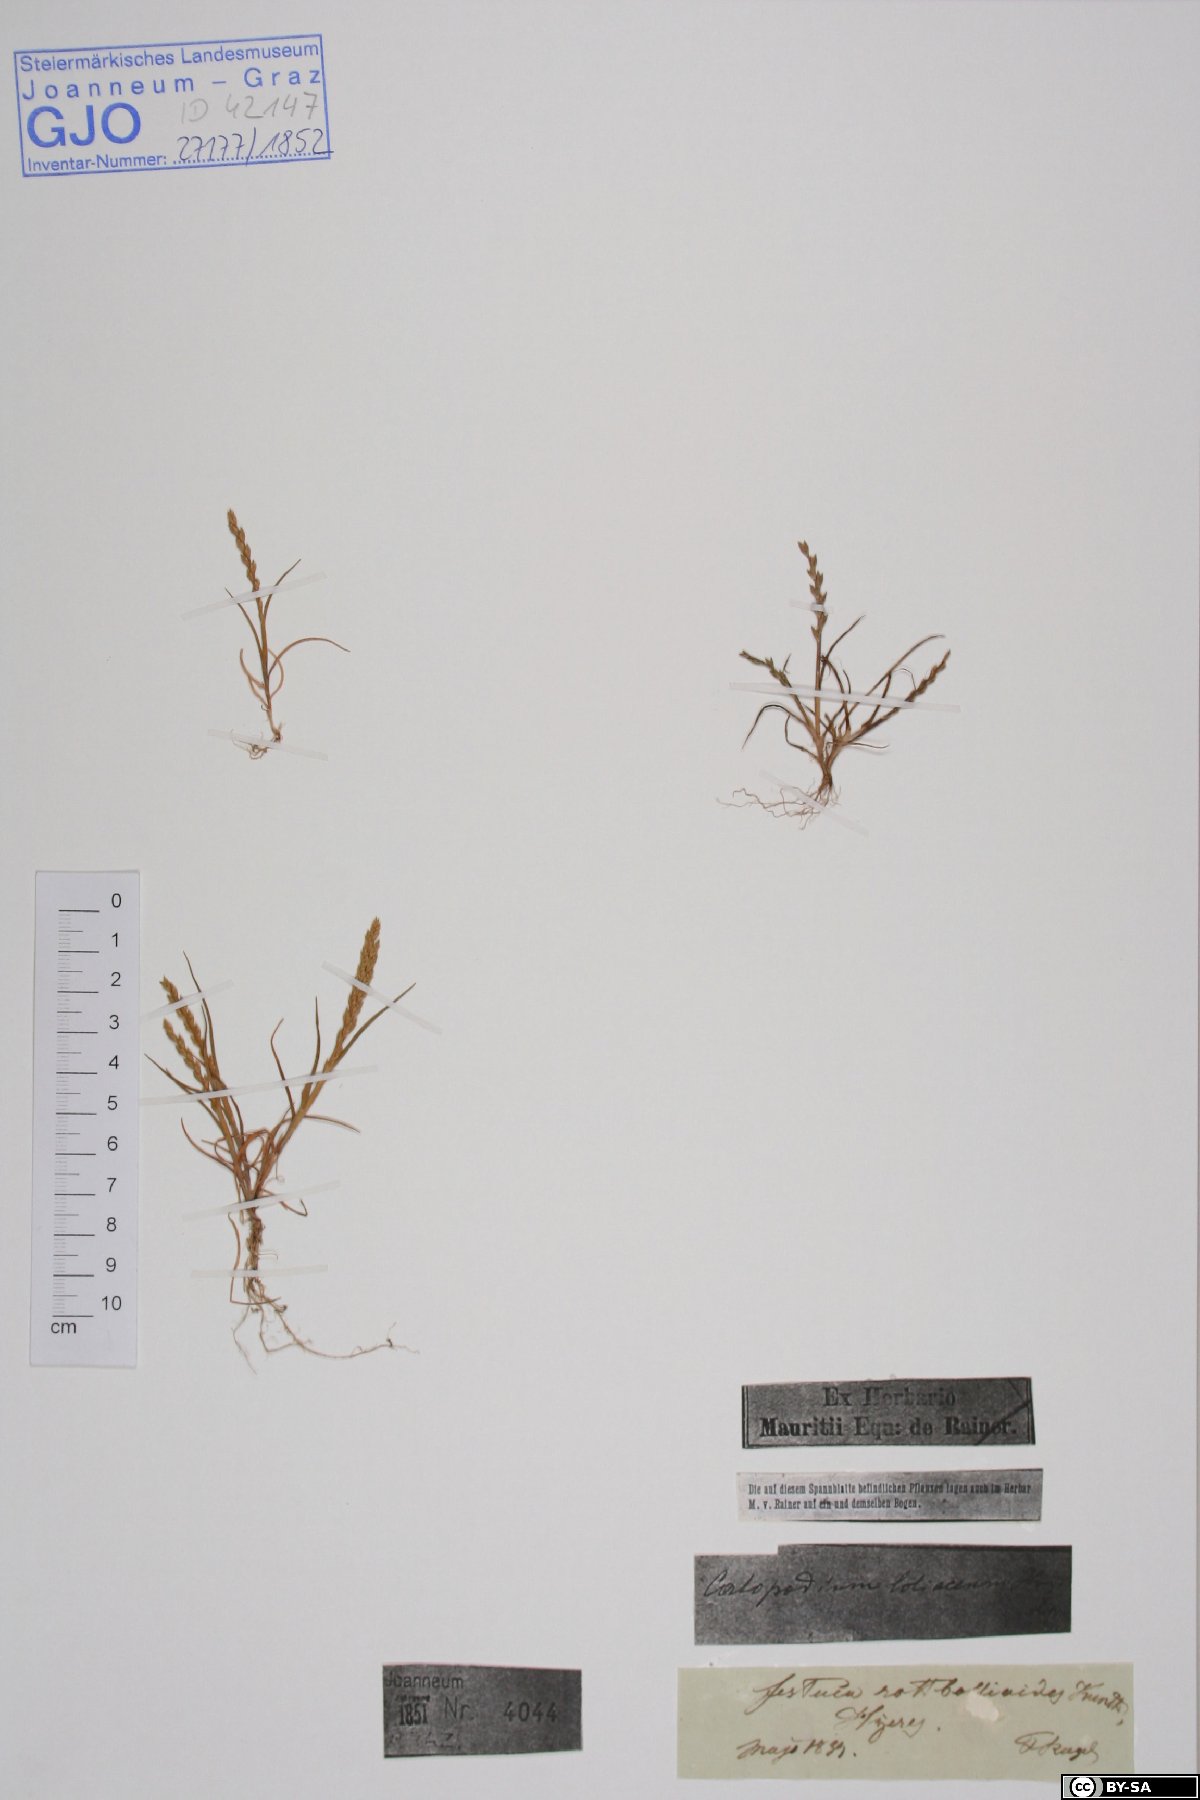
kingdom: Plantae
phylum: Tracheophyta
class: Liliopsida
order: Poales
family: Poaceae
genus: Catapodium
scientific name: Catapodium marinum
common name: Sea fern-grass
